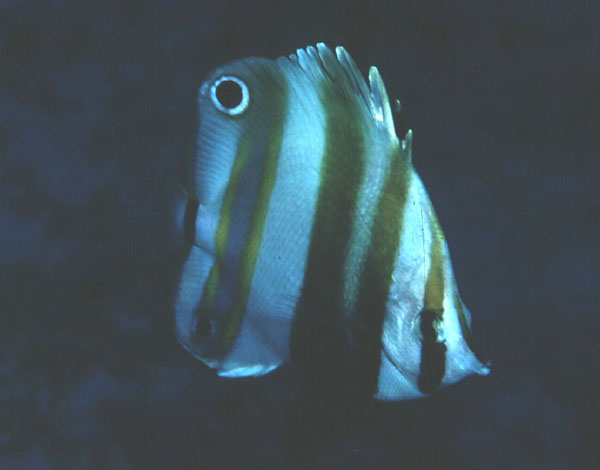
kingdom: Animalia
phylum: Chordata
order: Perciformes
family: Chaetodontidae
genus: Coradion
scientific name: Coradion melanopus
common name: Two-eyed coralfish
